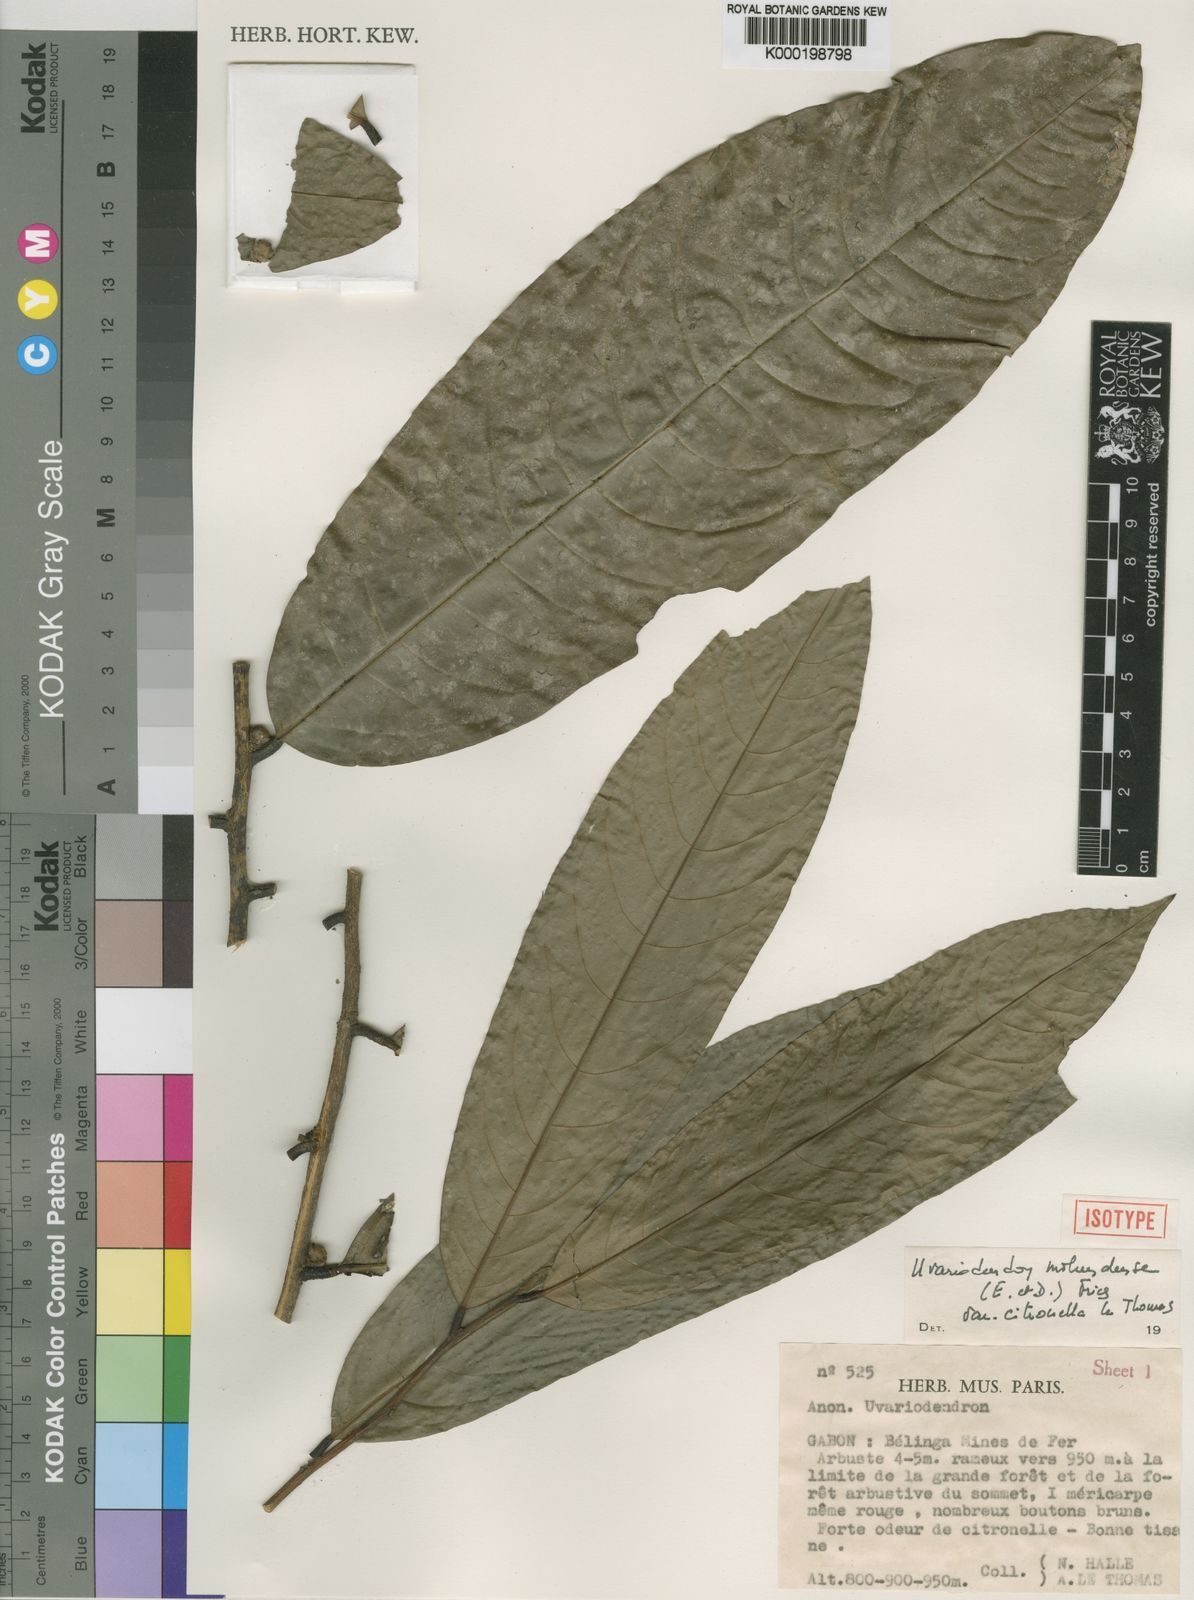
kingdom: Plantae
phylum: Tracheophyta
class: Magnoliopsida
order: Magnoliales
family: Annonaceae
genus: Uvariodendron
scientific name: Uvariodendron molundense
